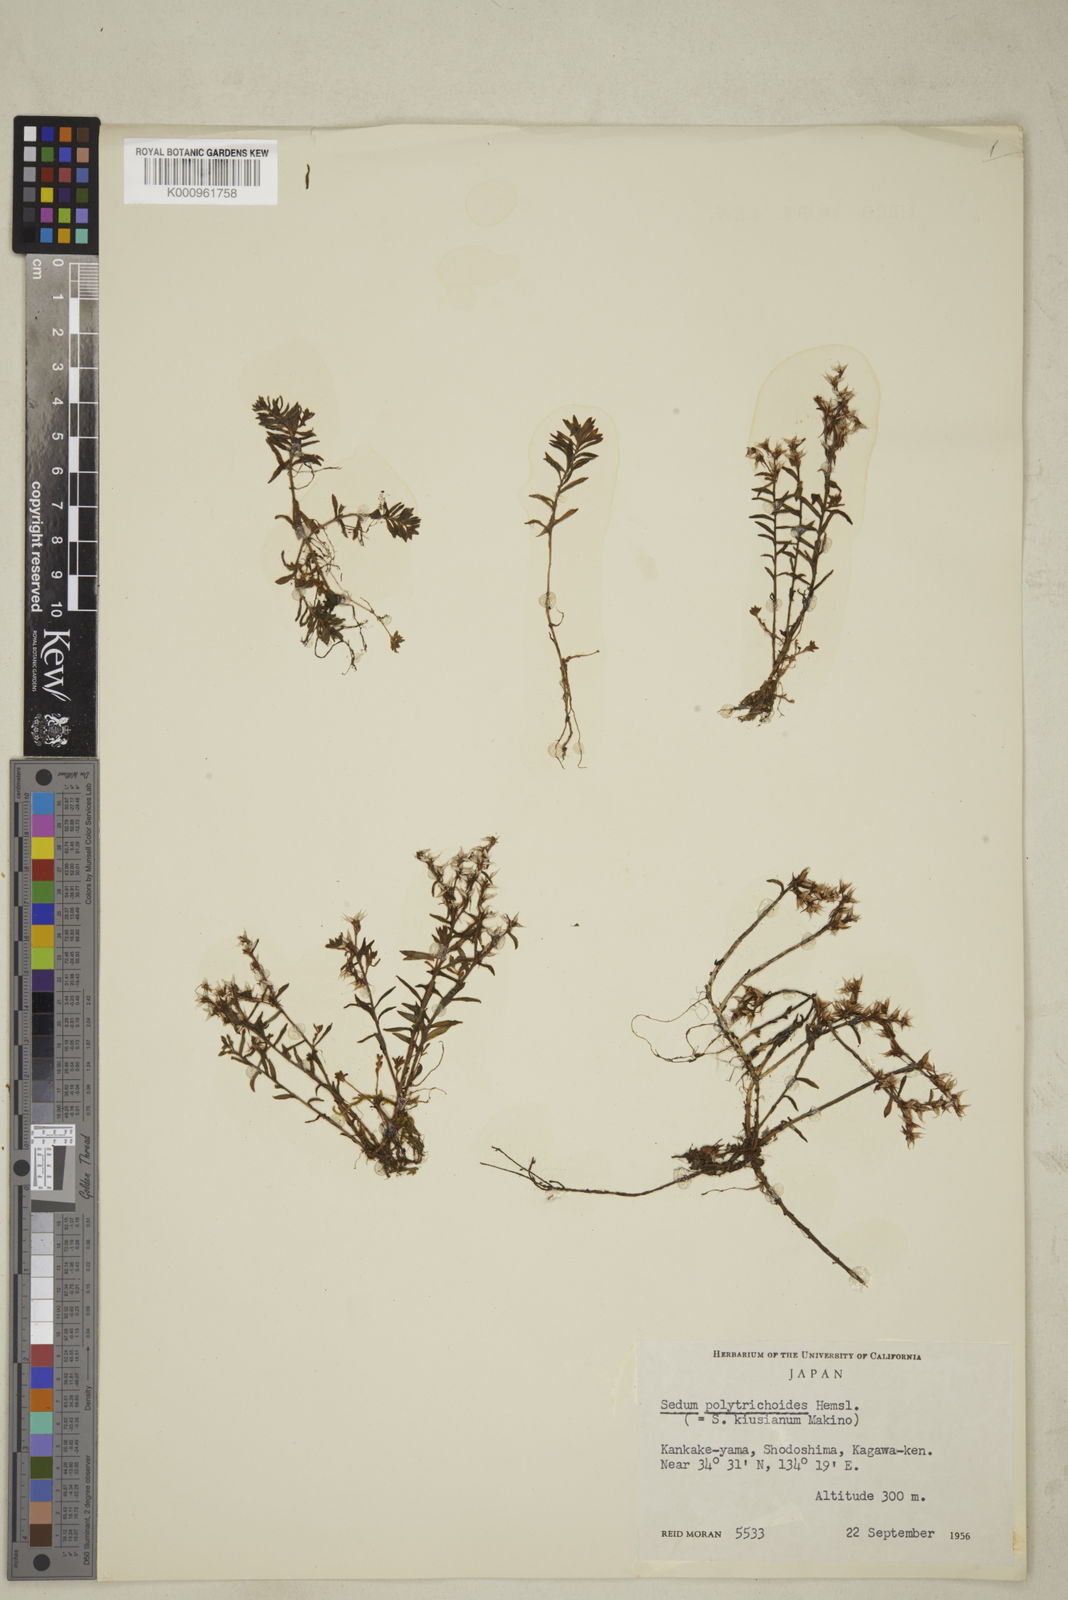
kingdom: Plantae
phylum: Tracheophyta
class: Magnoliopsida
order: Saxifragales
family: Crassulaceae
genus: Sedum
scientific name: Sedum polytrichoides
